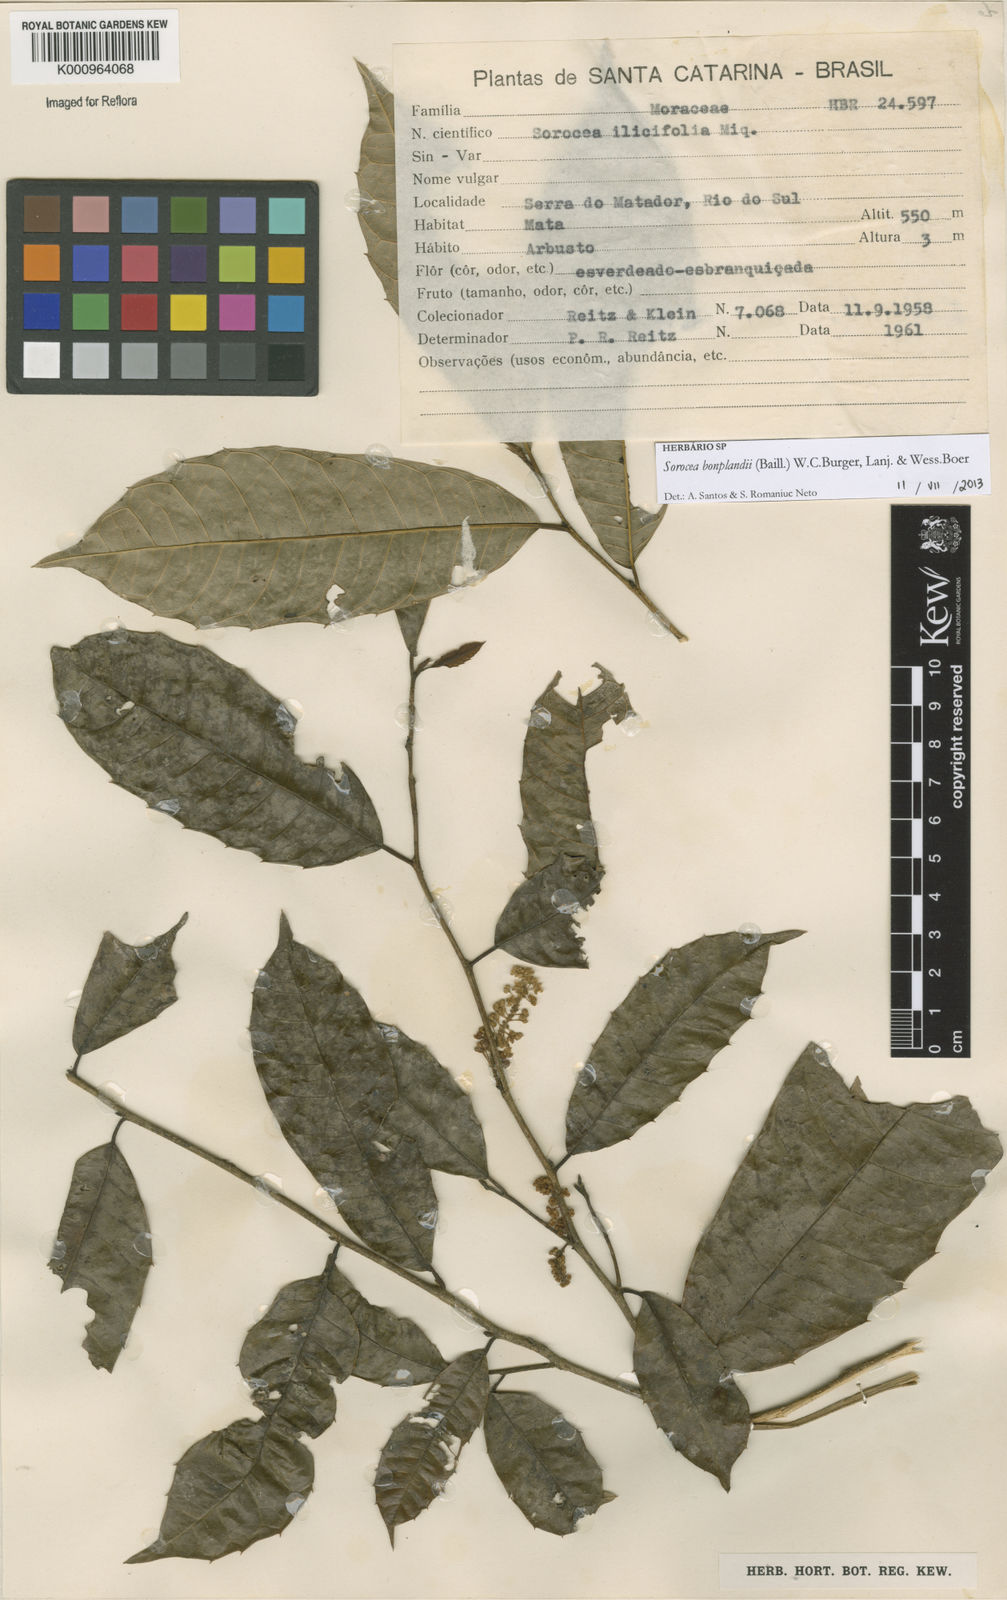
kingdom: Plantae
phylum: Tracheophyta
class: Magnoliopsida
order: Rosales
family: Moraceae
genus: Sorocea
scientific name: Sorocea
